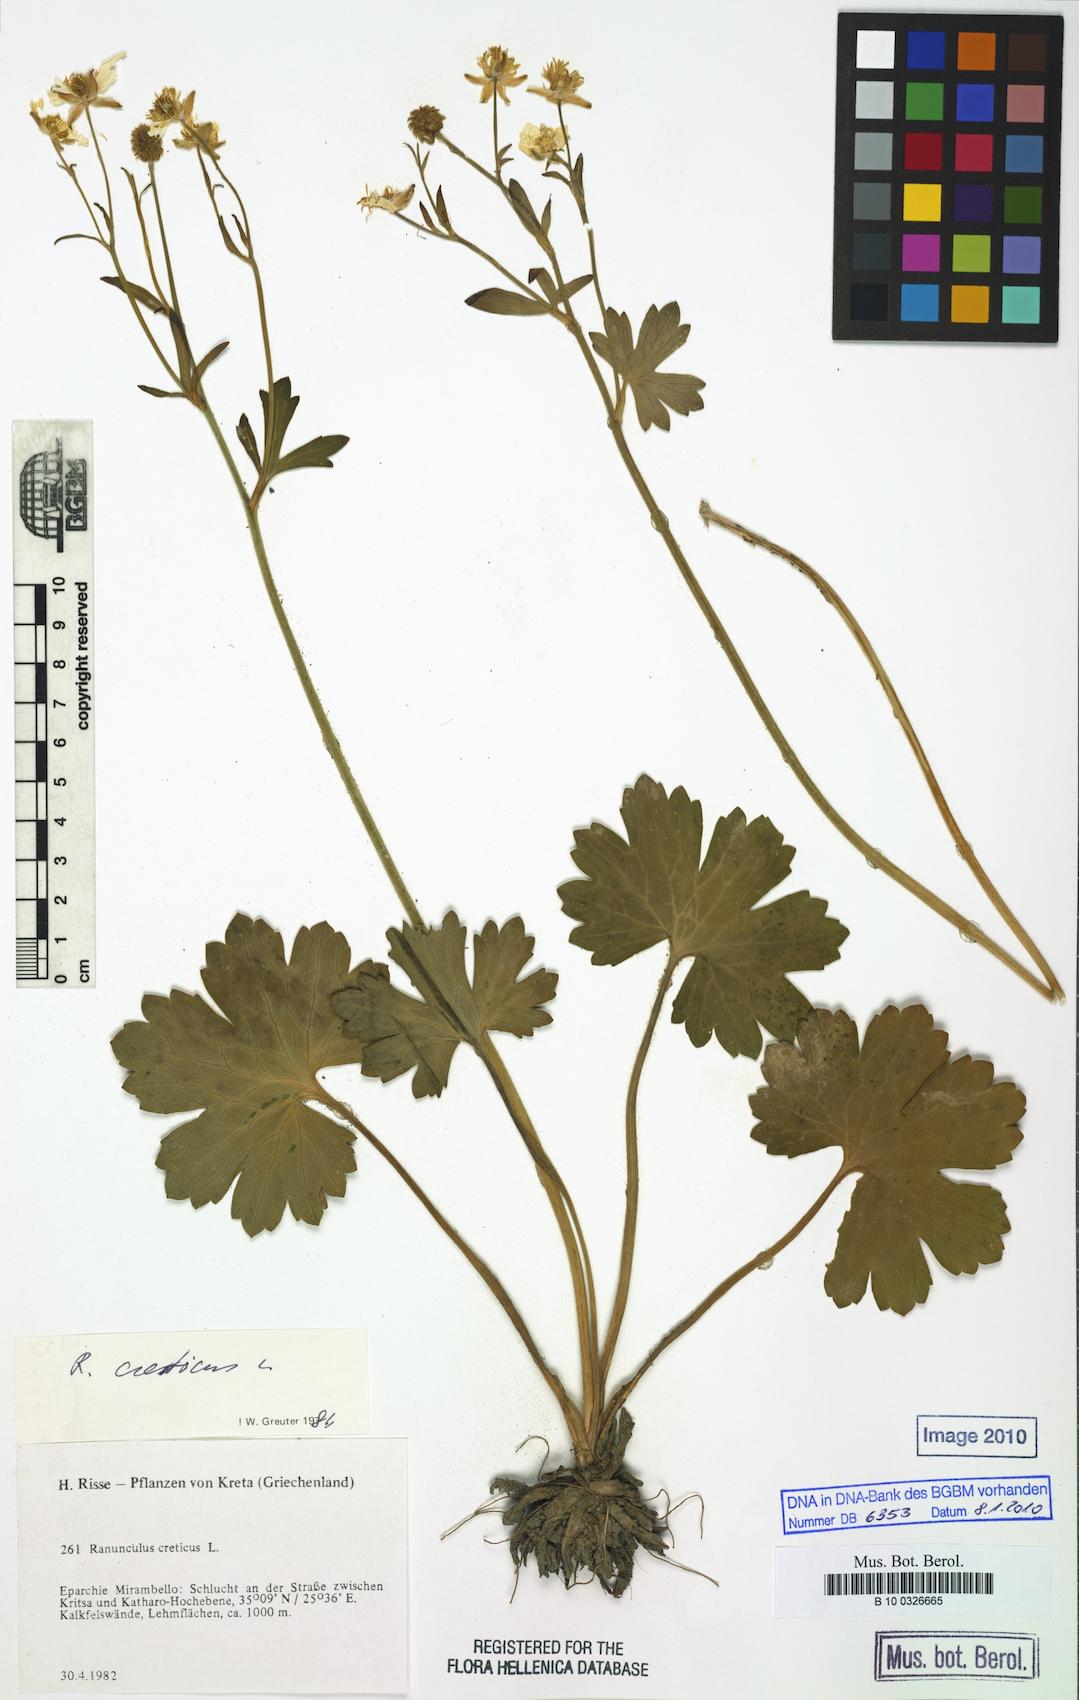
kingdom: Plantae
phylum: Tracheophyta
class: Magnoliopsida
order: Ranunculales
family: Ranunculaceae
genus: Ranunculus
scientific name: Ranunculus creticus
